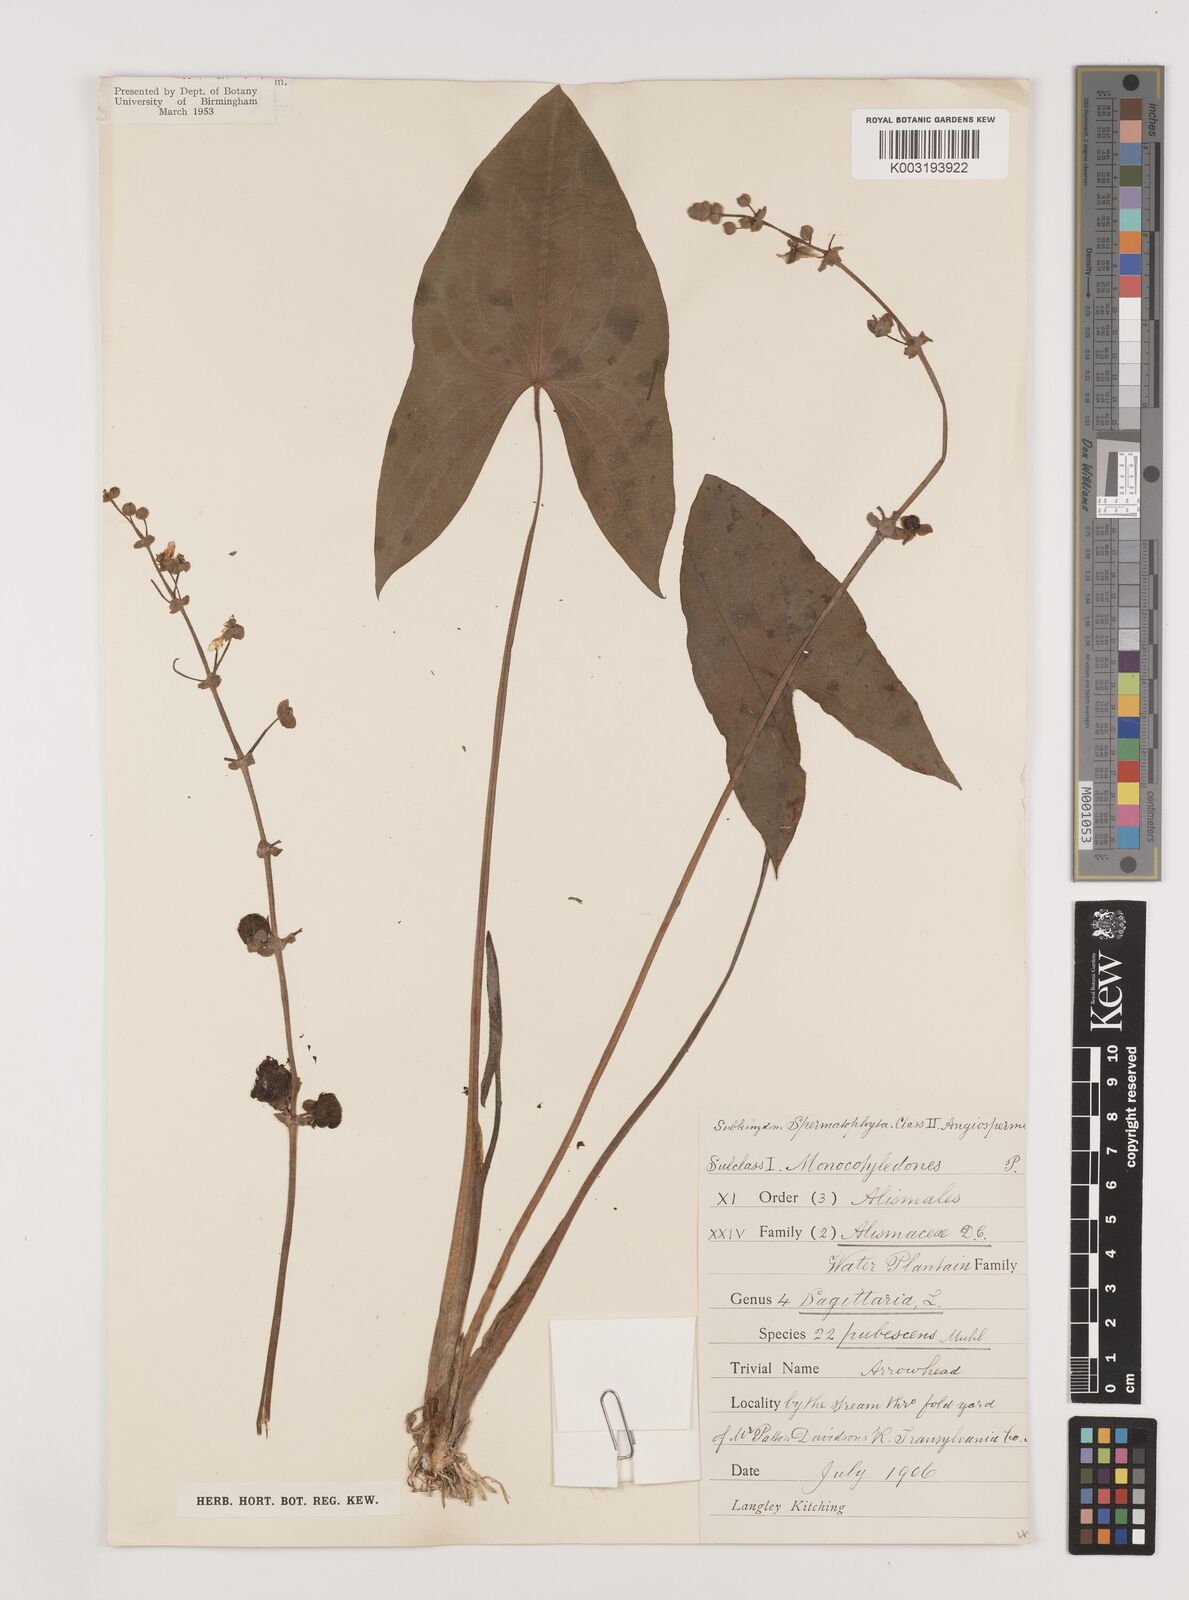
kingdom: Plantae
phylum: Tracheophyta
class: Liliopsida
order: Alismatales
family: Alismataceae
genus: Sagittaria
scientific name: Sagittaria latifolia
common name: Duck-potato
